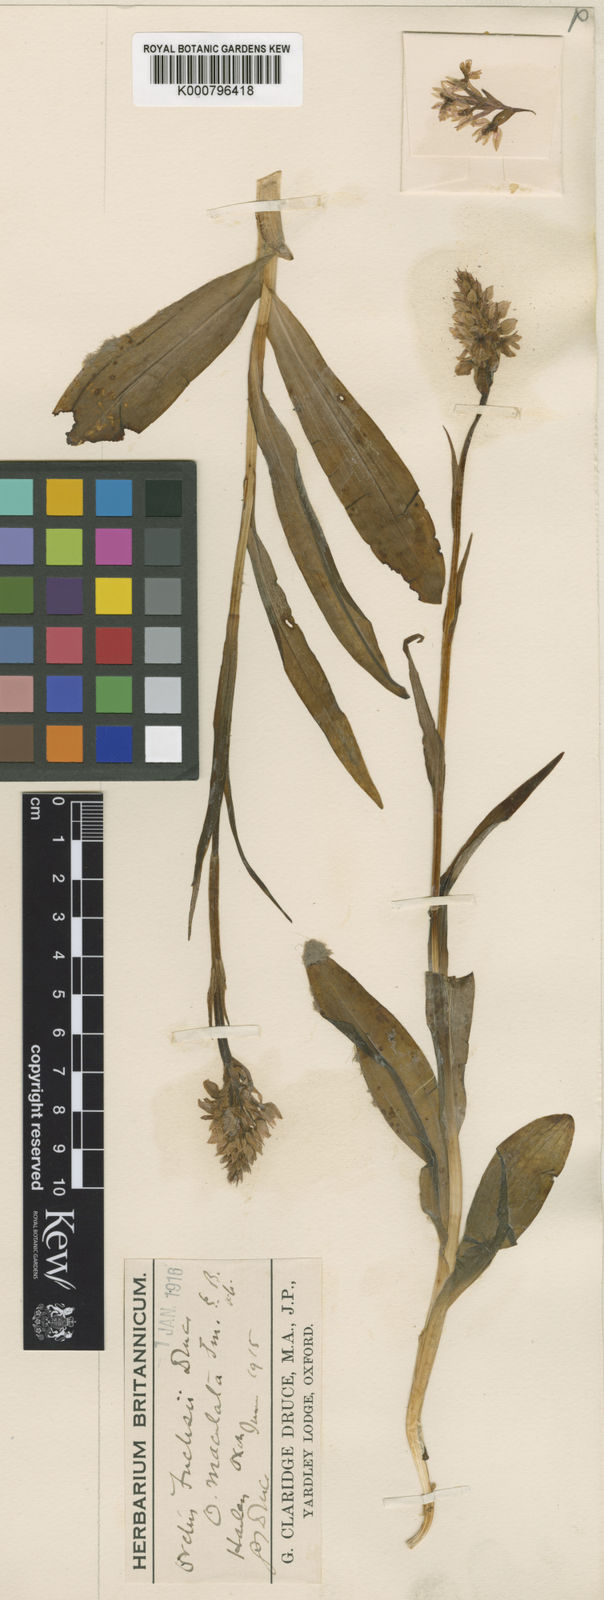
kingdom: Plantae
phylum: Tracheophyta
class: Liliopsida
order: Asparagales
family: Orchidaceae
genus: Dactylorhiza
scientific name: Dactylorhiza
